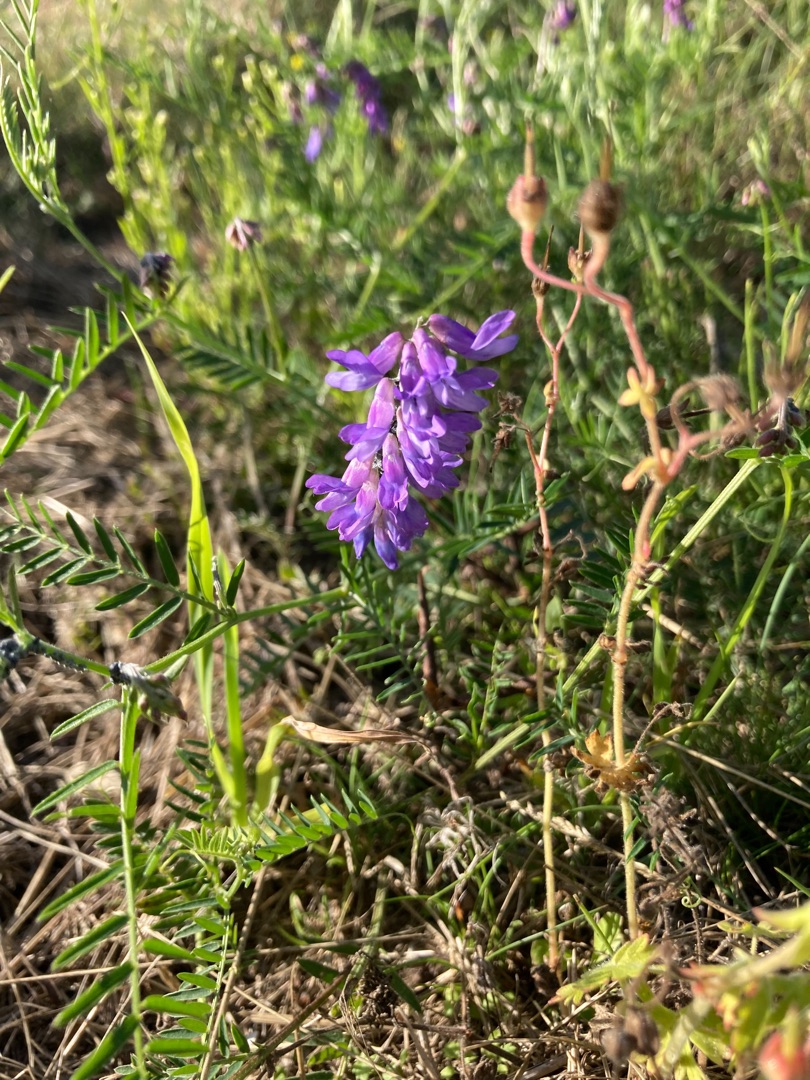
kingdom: Plantae
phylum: Tracheophyta
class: Magnoliopsida
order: Fabales
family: Fabaceae
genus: Vicia
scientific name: Vicia cracca
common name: Muse-vikke
